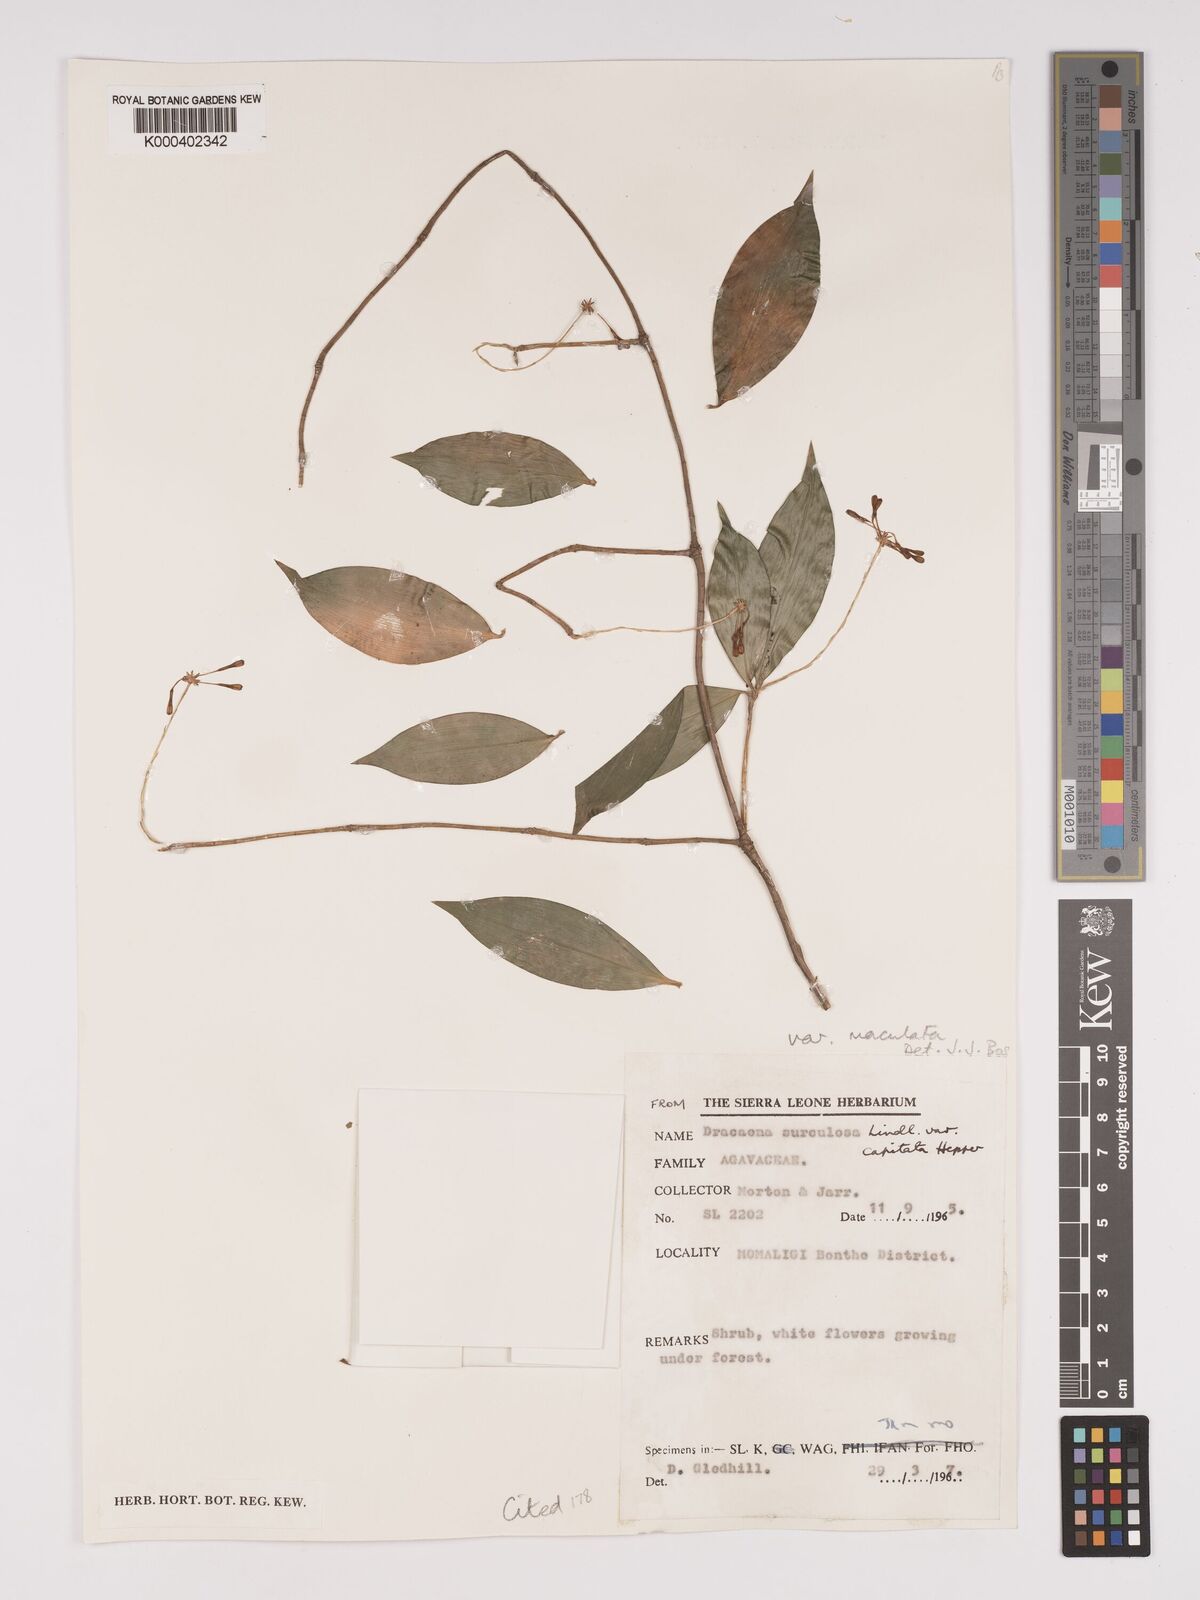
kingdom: Plantae
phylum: Tracheophyta
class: Liliopsida
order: Asparagales
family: Asparagaceae
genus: Dracaena
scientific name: Dracaena surculosa
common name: Spotted dracaena
